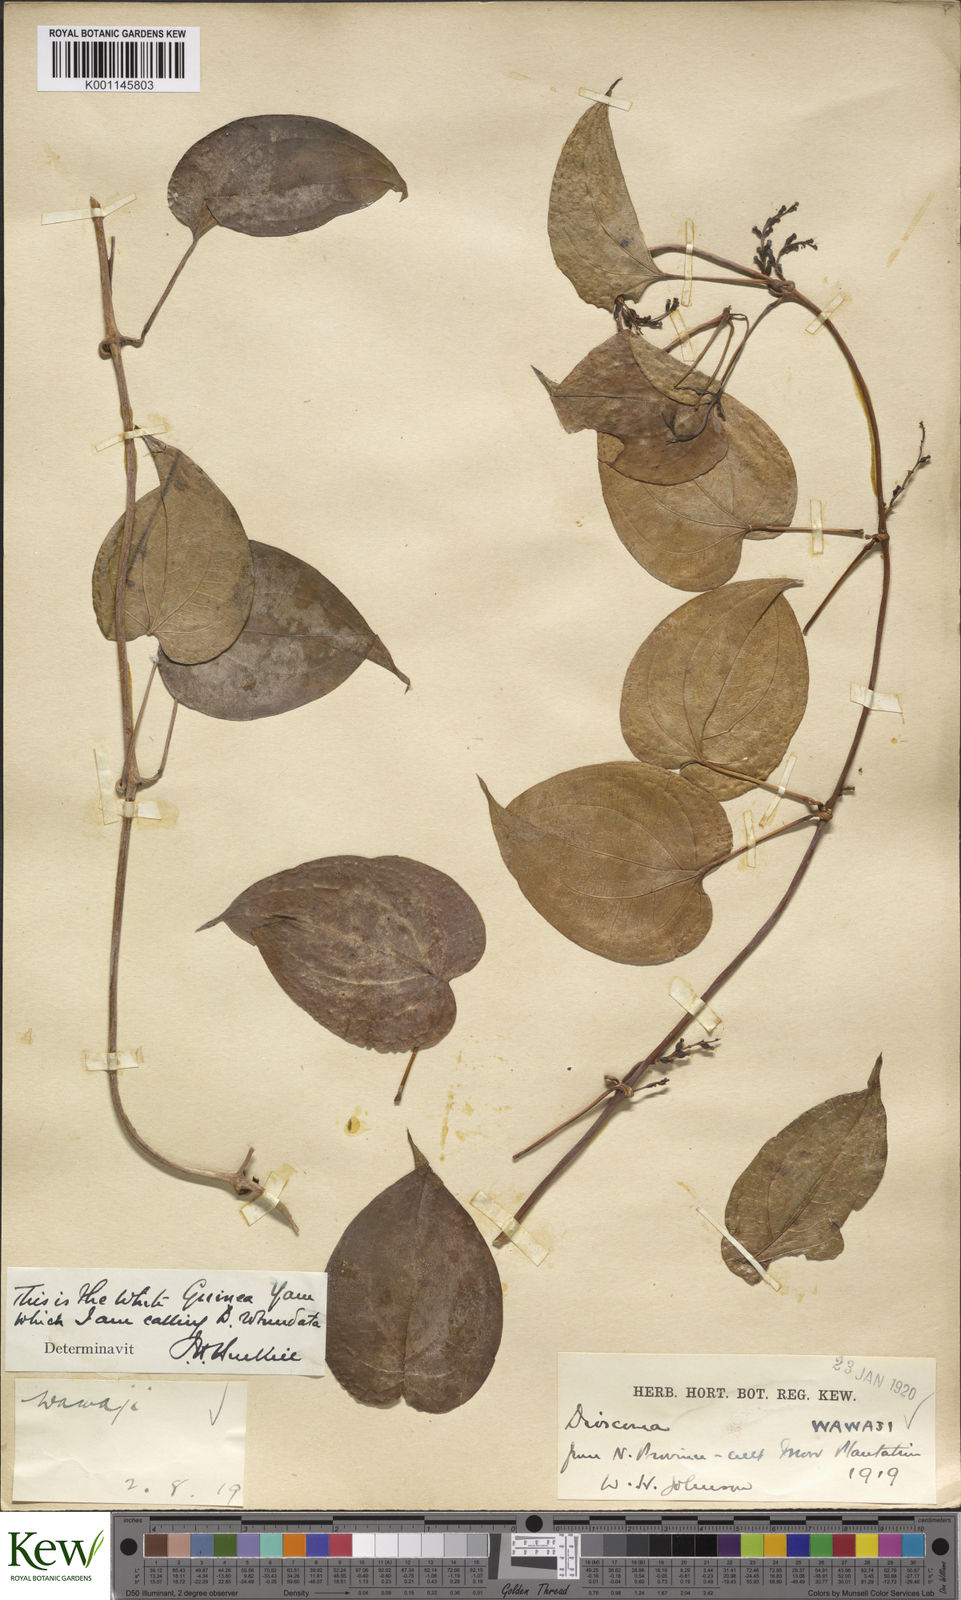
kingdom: Plantae
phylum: Tracheophyta
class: Liliopsida
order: Dioscoreales
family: Dioscoreaceae
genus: Dioscorea
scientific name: Dioscorea cayenensis
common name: Attoto yam
